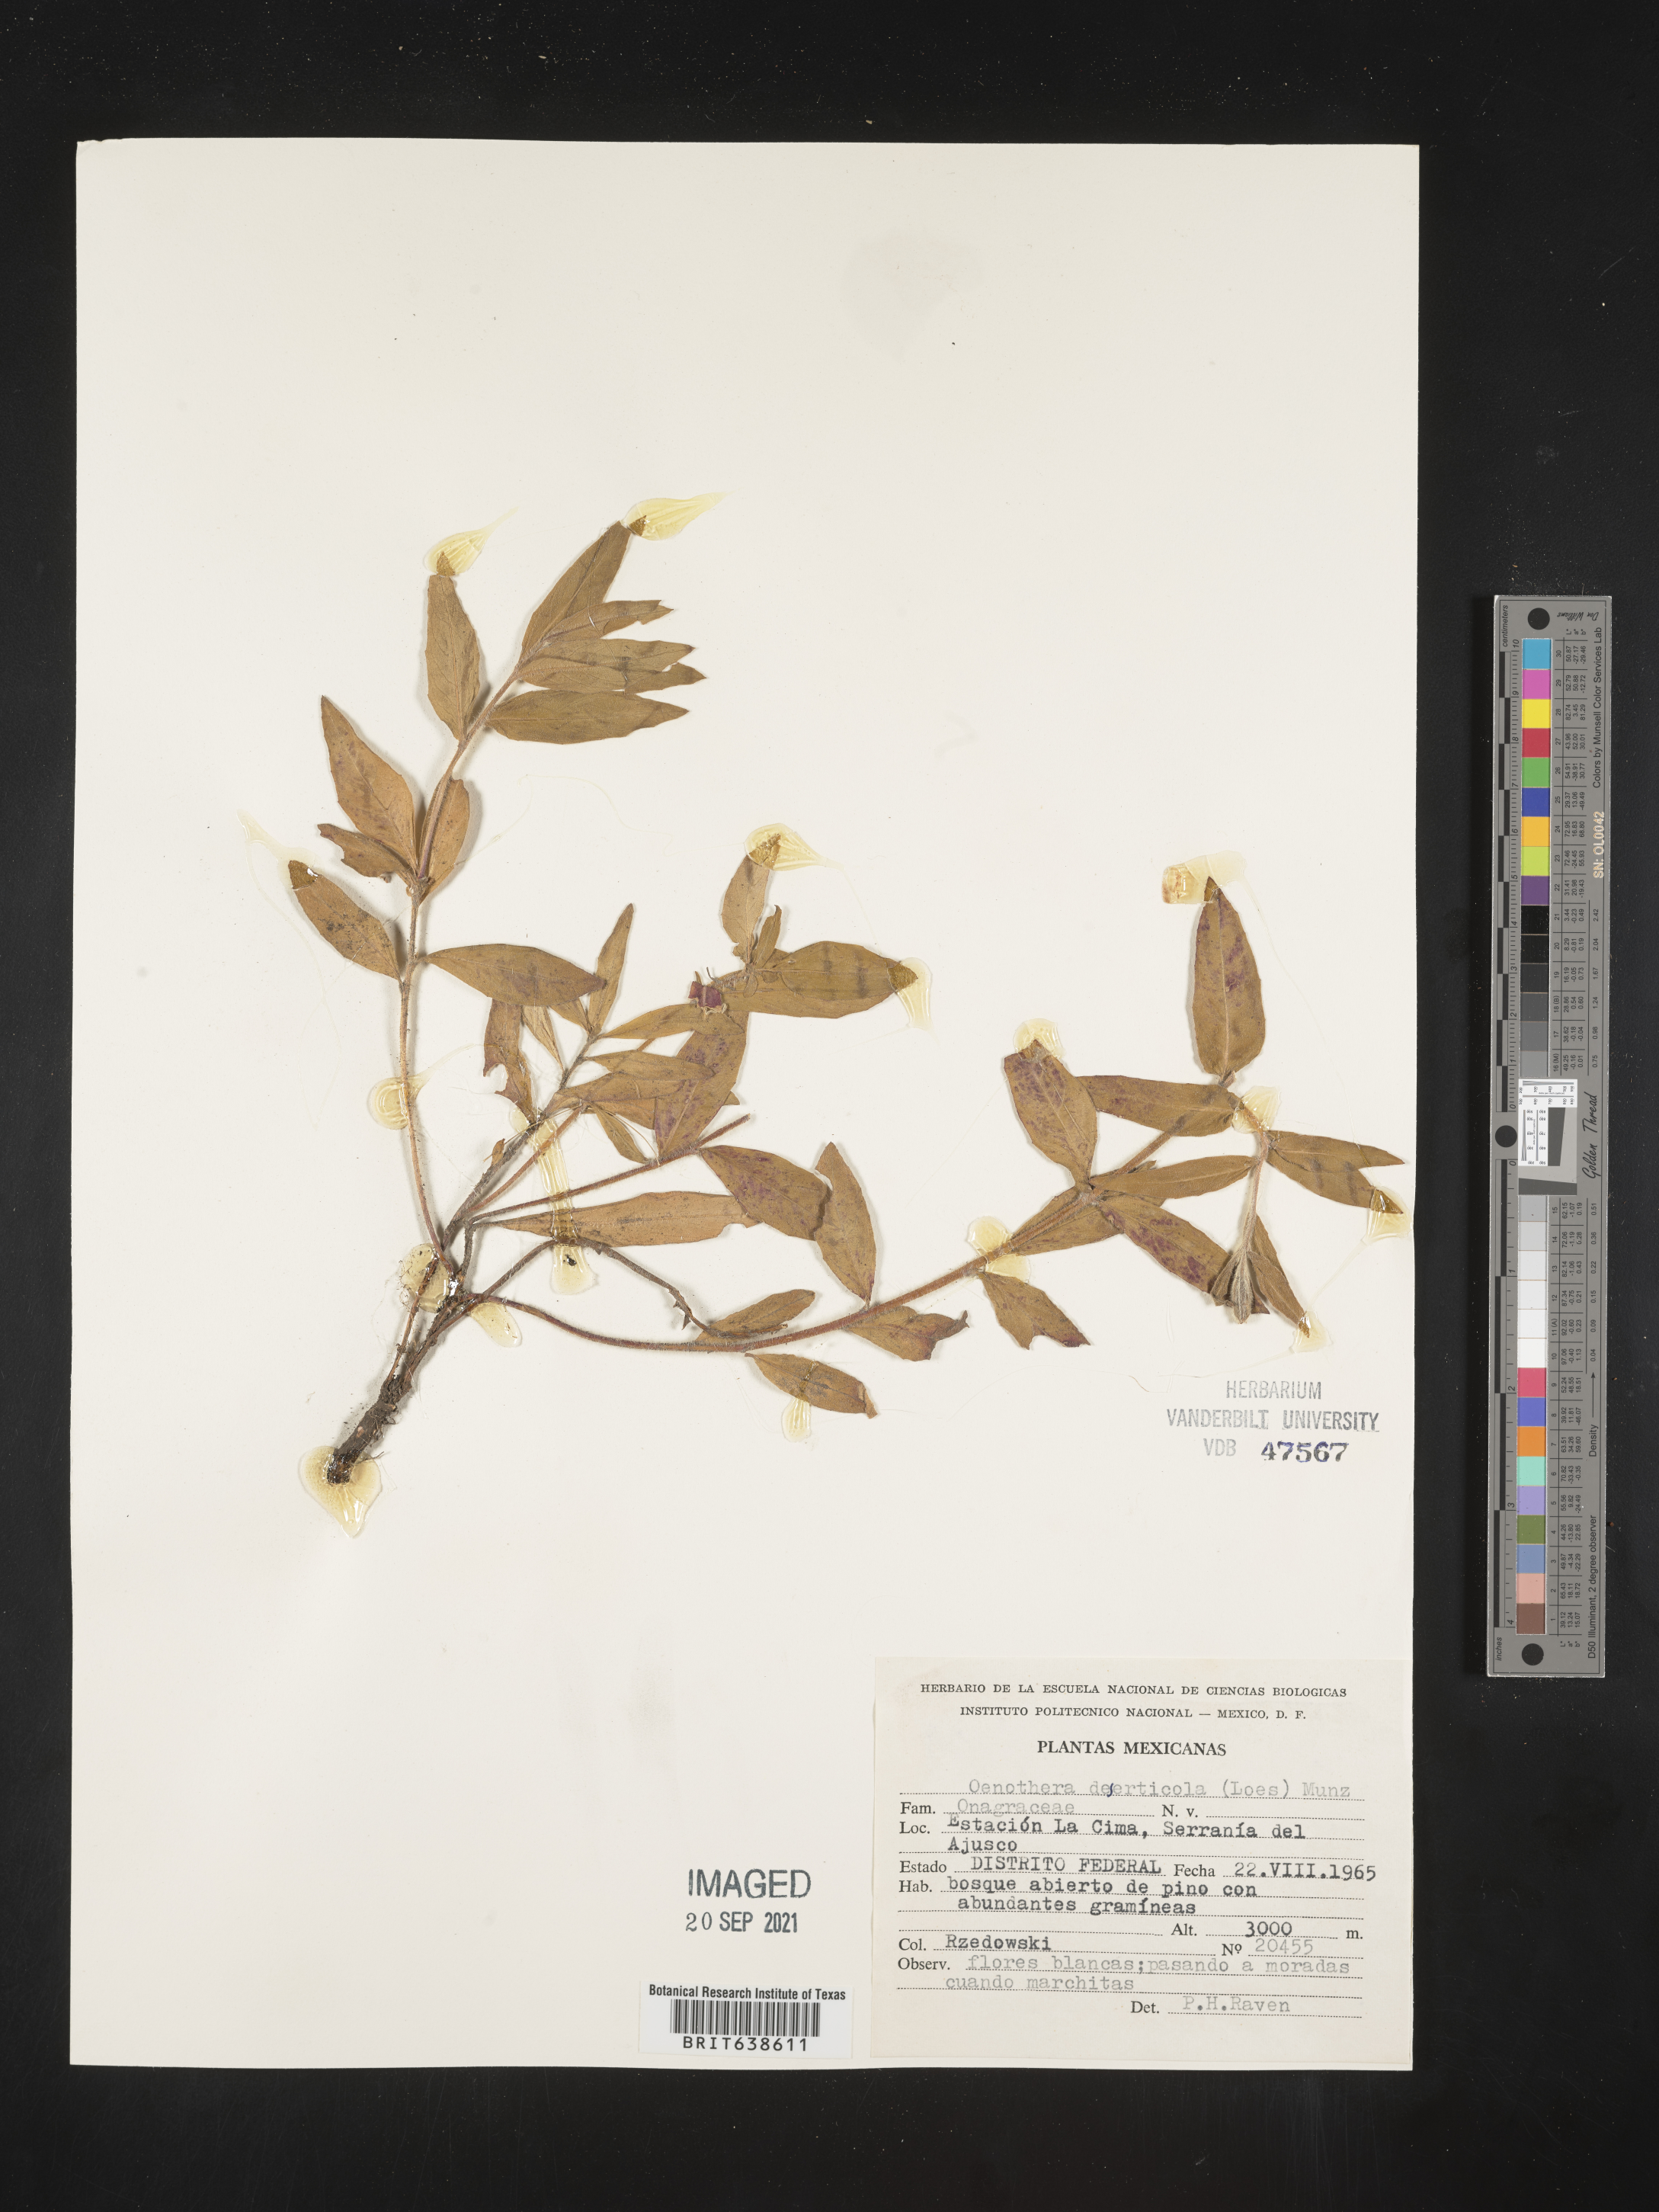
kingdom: Plantae
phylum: Tracheophyta
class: Magnoliopsida
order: Myrtales
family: Onagraceae
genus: Oenothera
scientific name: Oenothera
